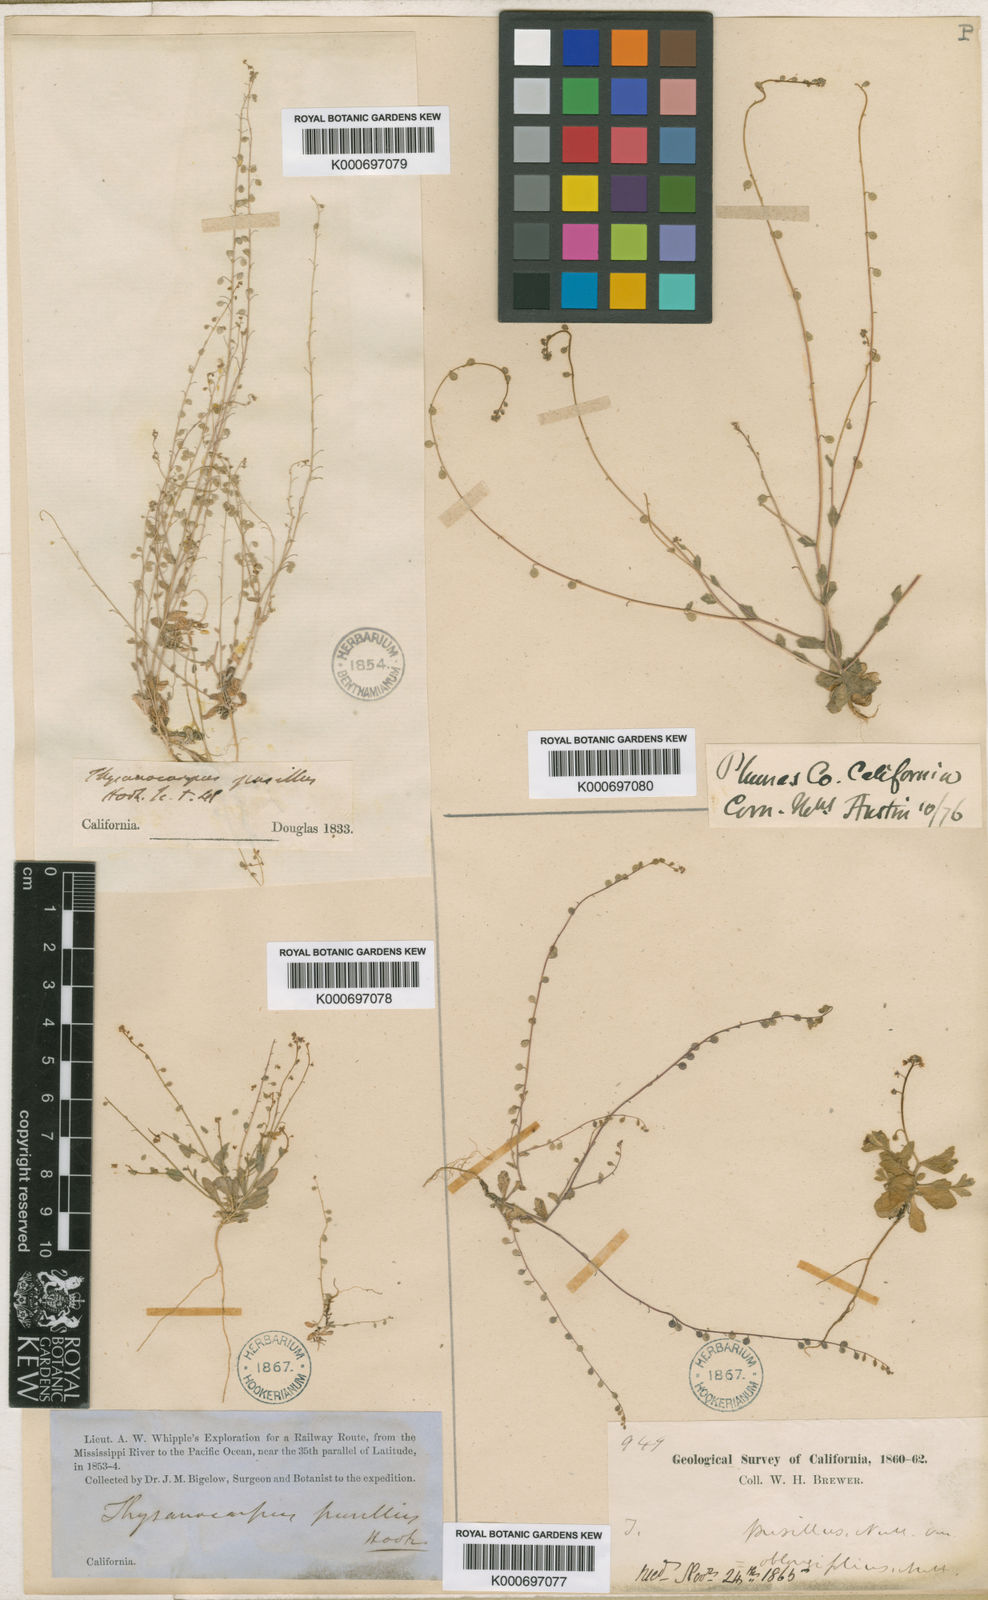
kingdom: Plantae
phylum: Tracheophyta
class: Magnoliopsida
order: Brassicales
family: Brassicaceae
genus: Athysanus
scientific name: Athysanus pusillus
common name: Common sandweed
